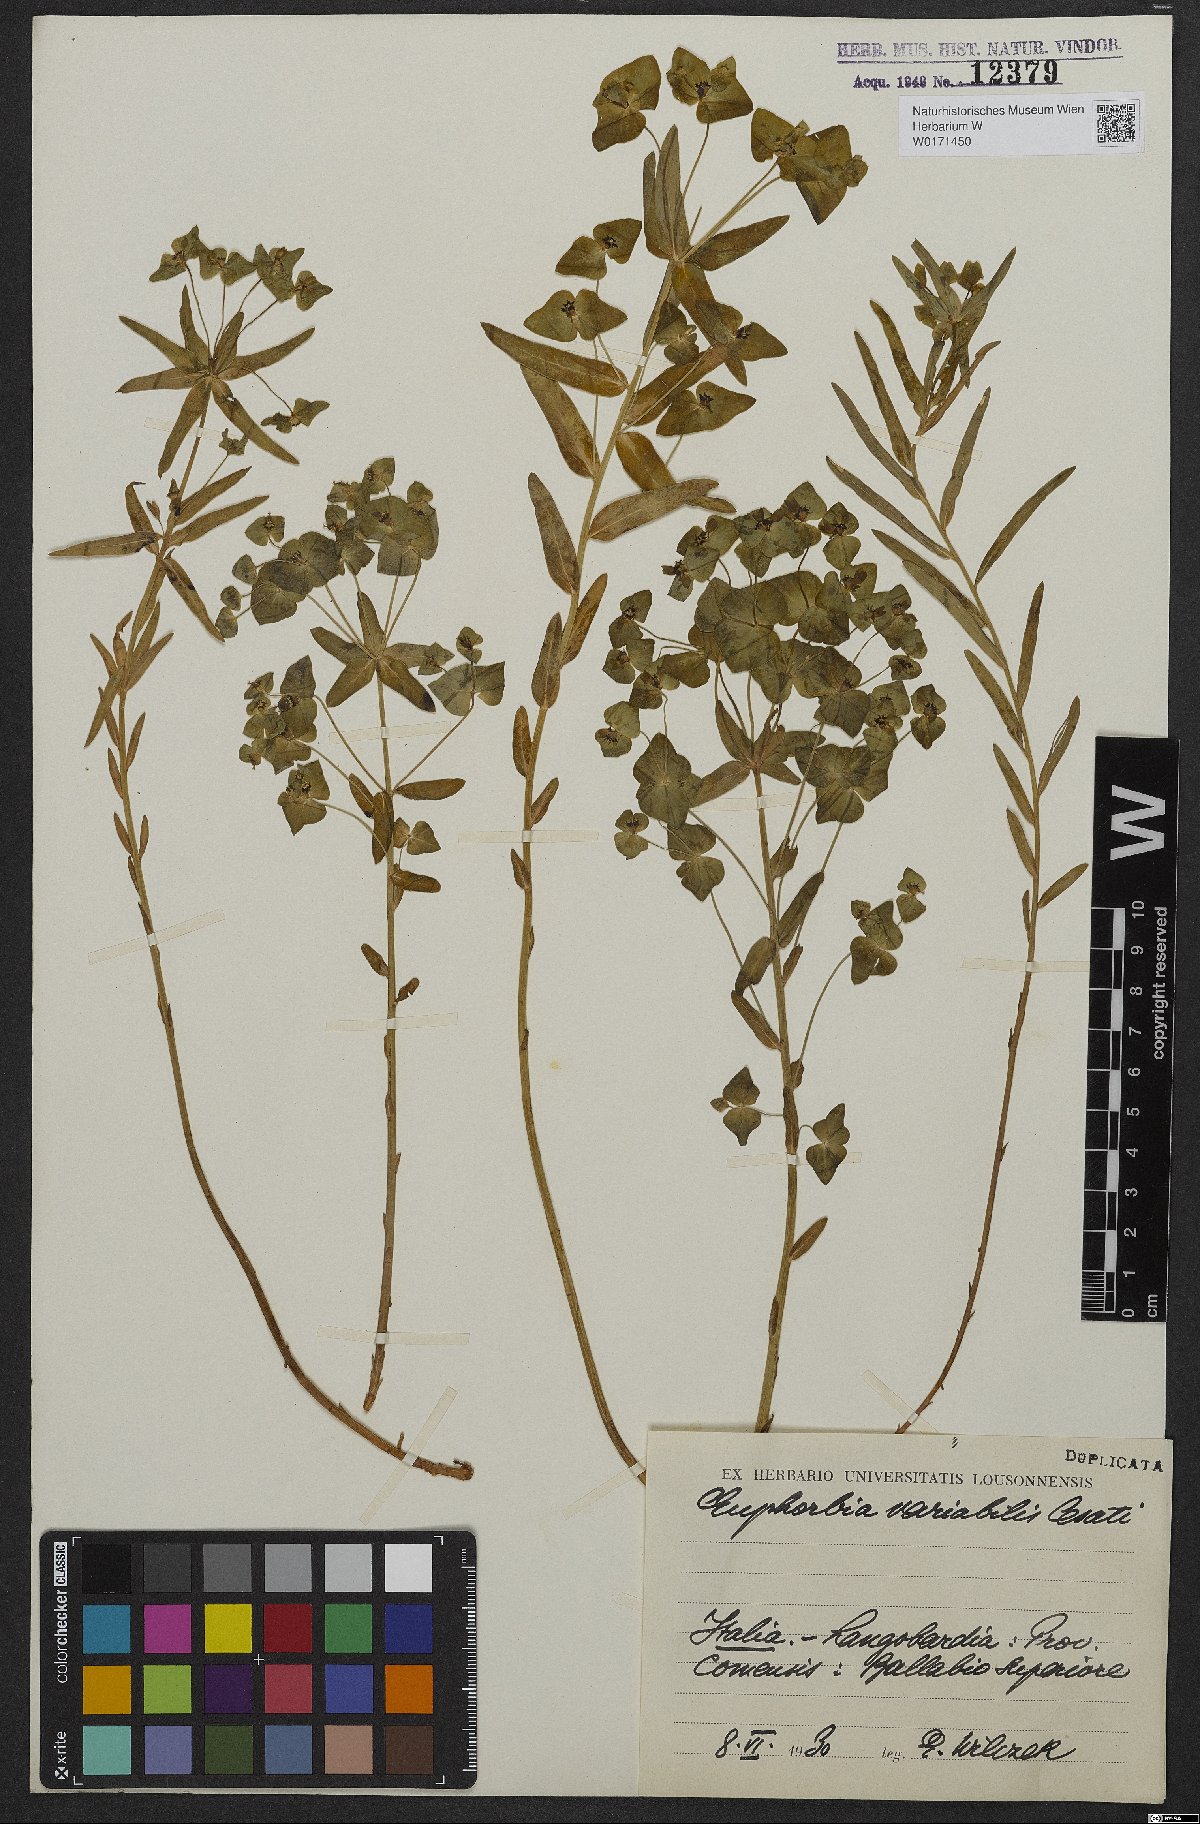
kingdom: Plantae
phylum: Tracheophyta
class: Magnoliopsida
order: Malpighiales
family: Euphorbiaceae
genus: Euphorbia
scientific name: Euphorbia variabilis
